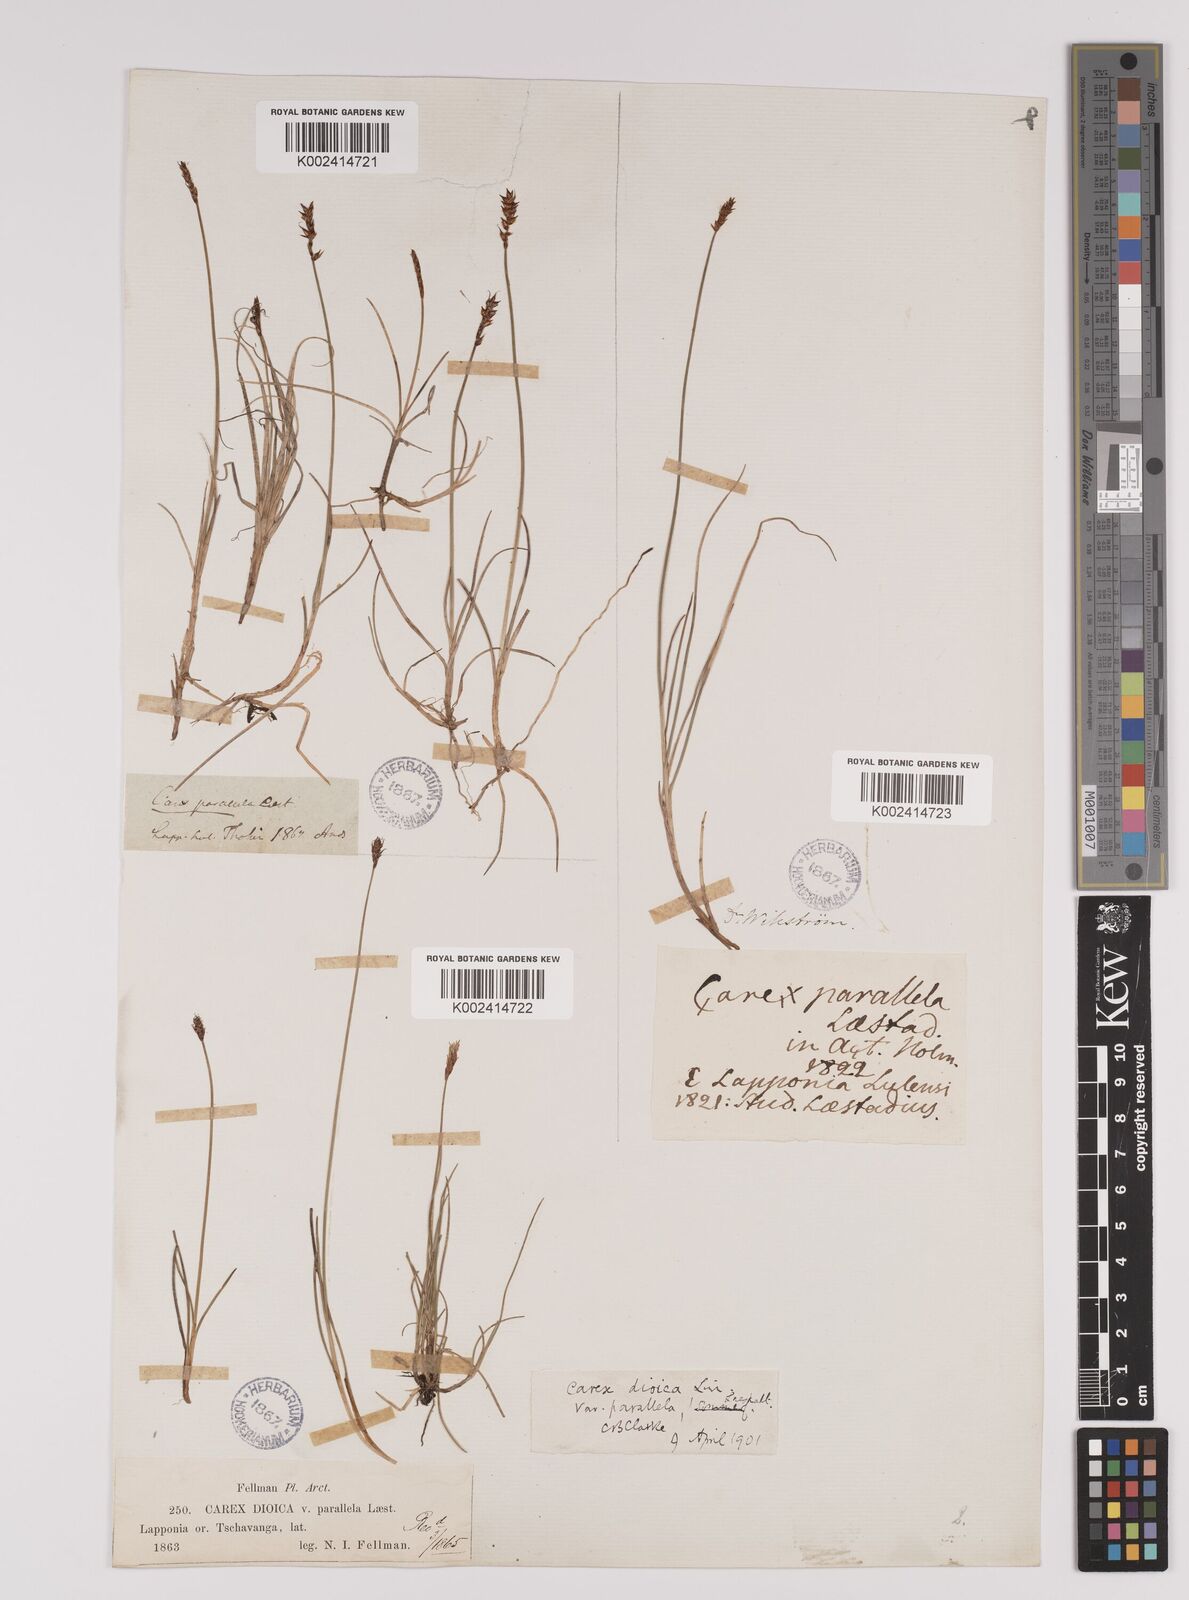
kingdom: Plantae
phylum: Tracheophyta
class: Liliopsida
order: Poales
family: Cyperaceae
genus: Carex
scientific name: Carex parallela
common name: Parallel sedge
